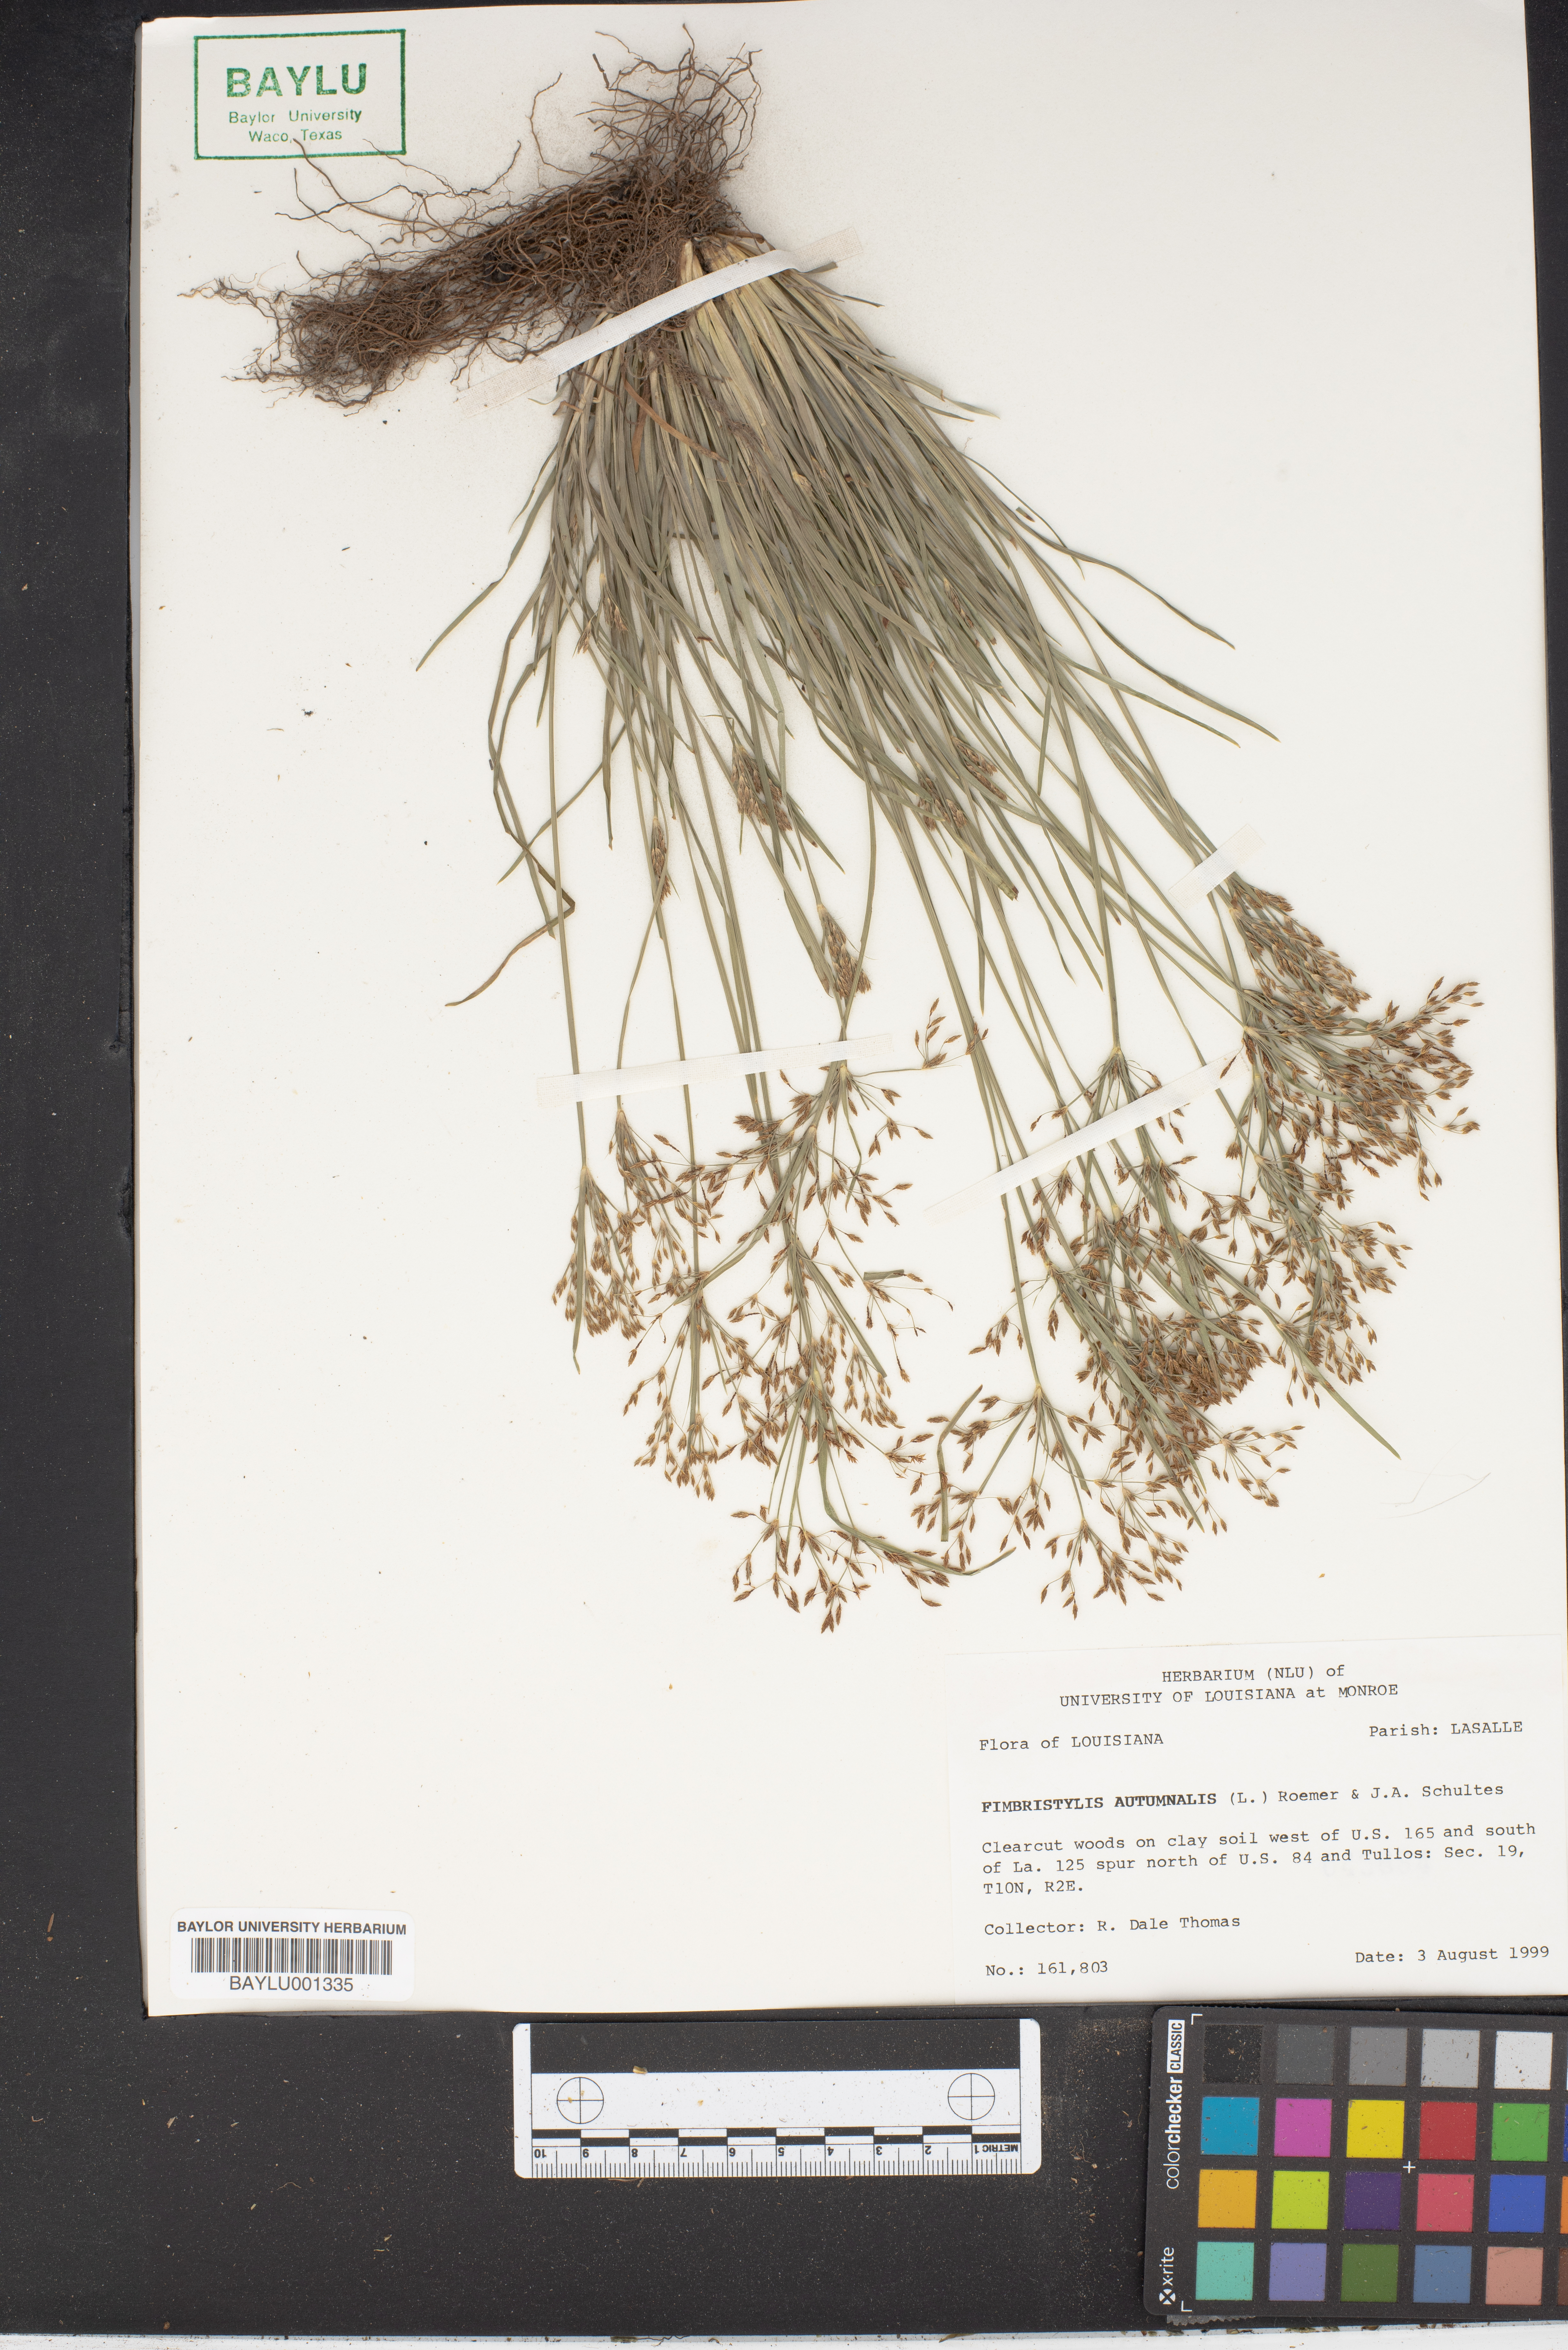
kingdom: Plantae
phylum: Tracheophyta
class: Liliopsida
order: Poales
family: Cyperaceae
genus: Fimbristylis
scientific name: Fimbristylis autumnalis
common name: Slender fimbristylis
